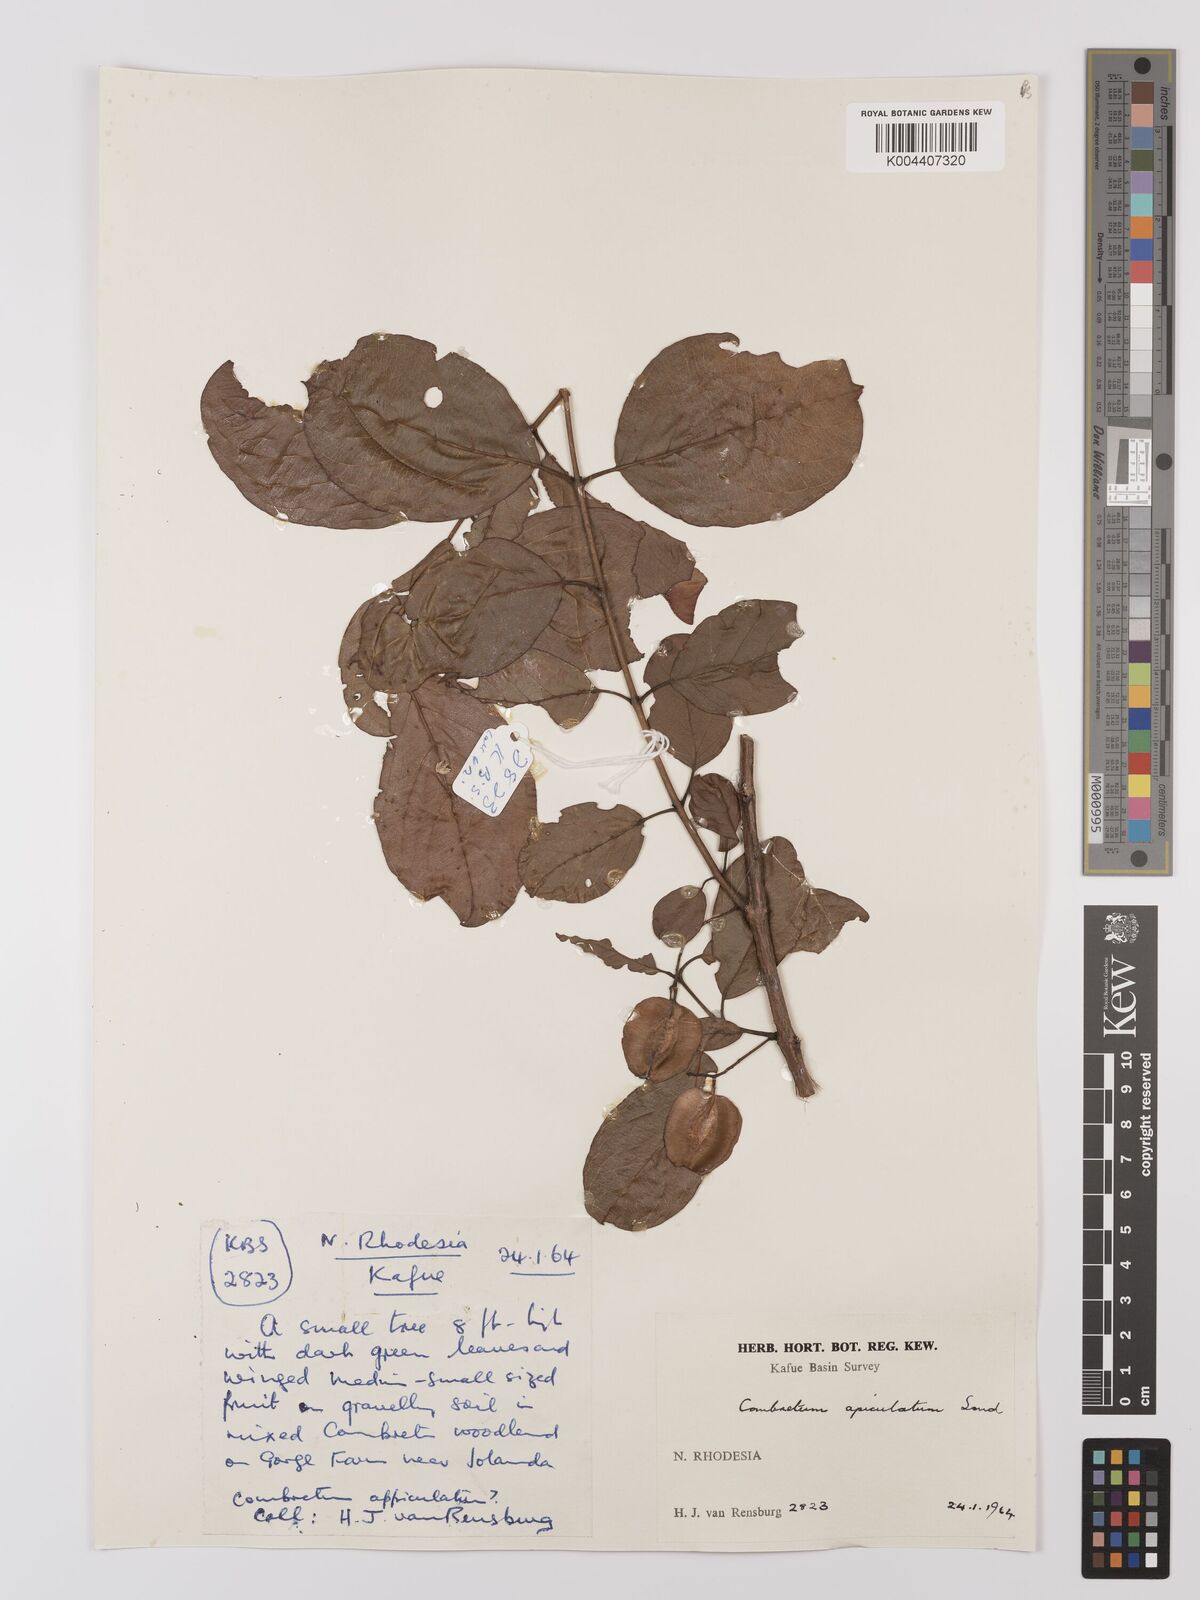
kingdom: Plantae
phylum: Tracheophyta
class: Magnoliopsida
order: Myrtales
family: Combretaceae
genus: Combretum
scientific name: Combretum apiculatum
